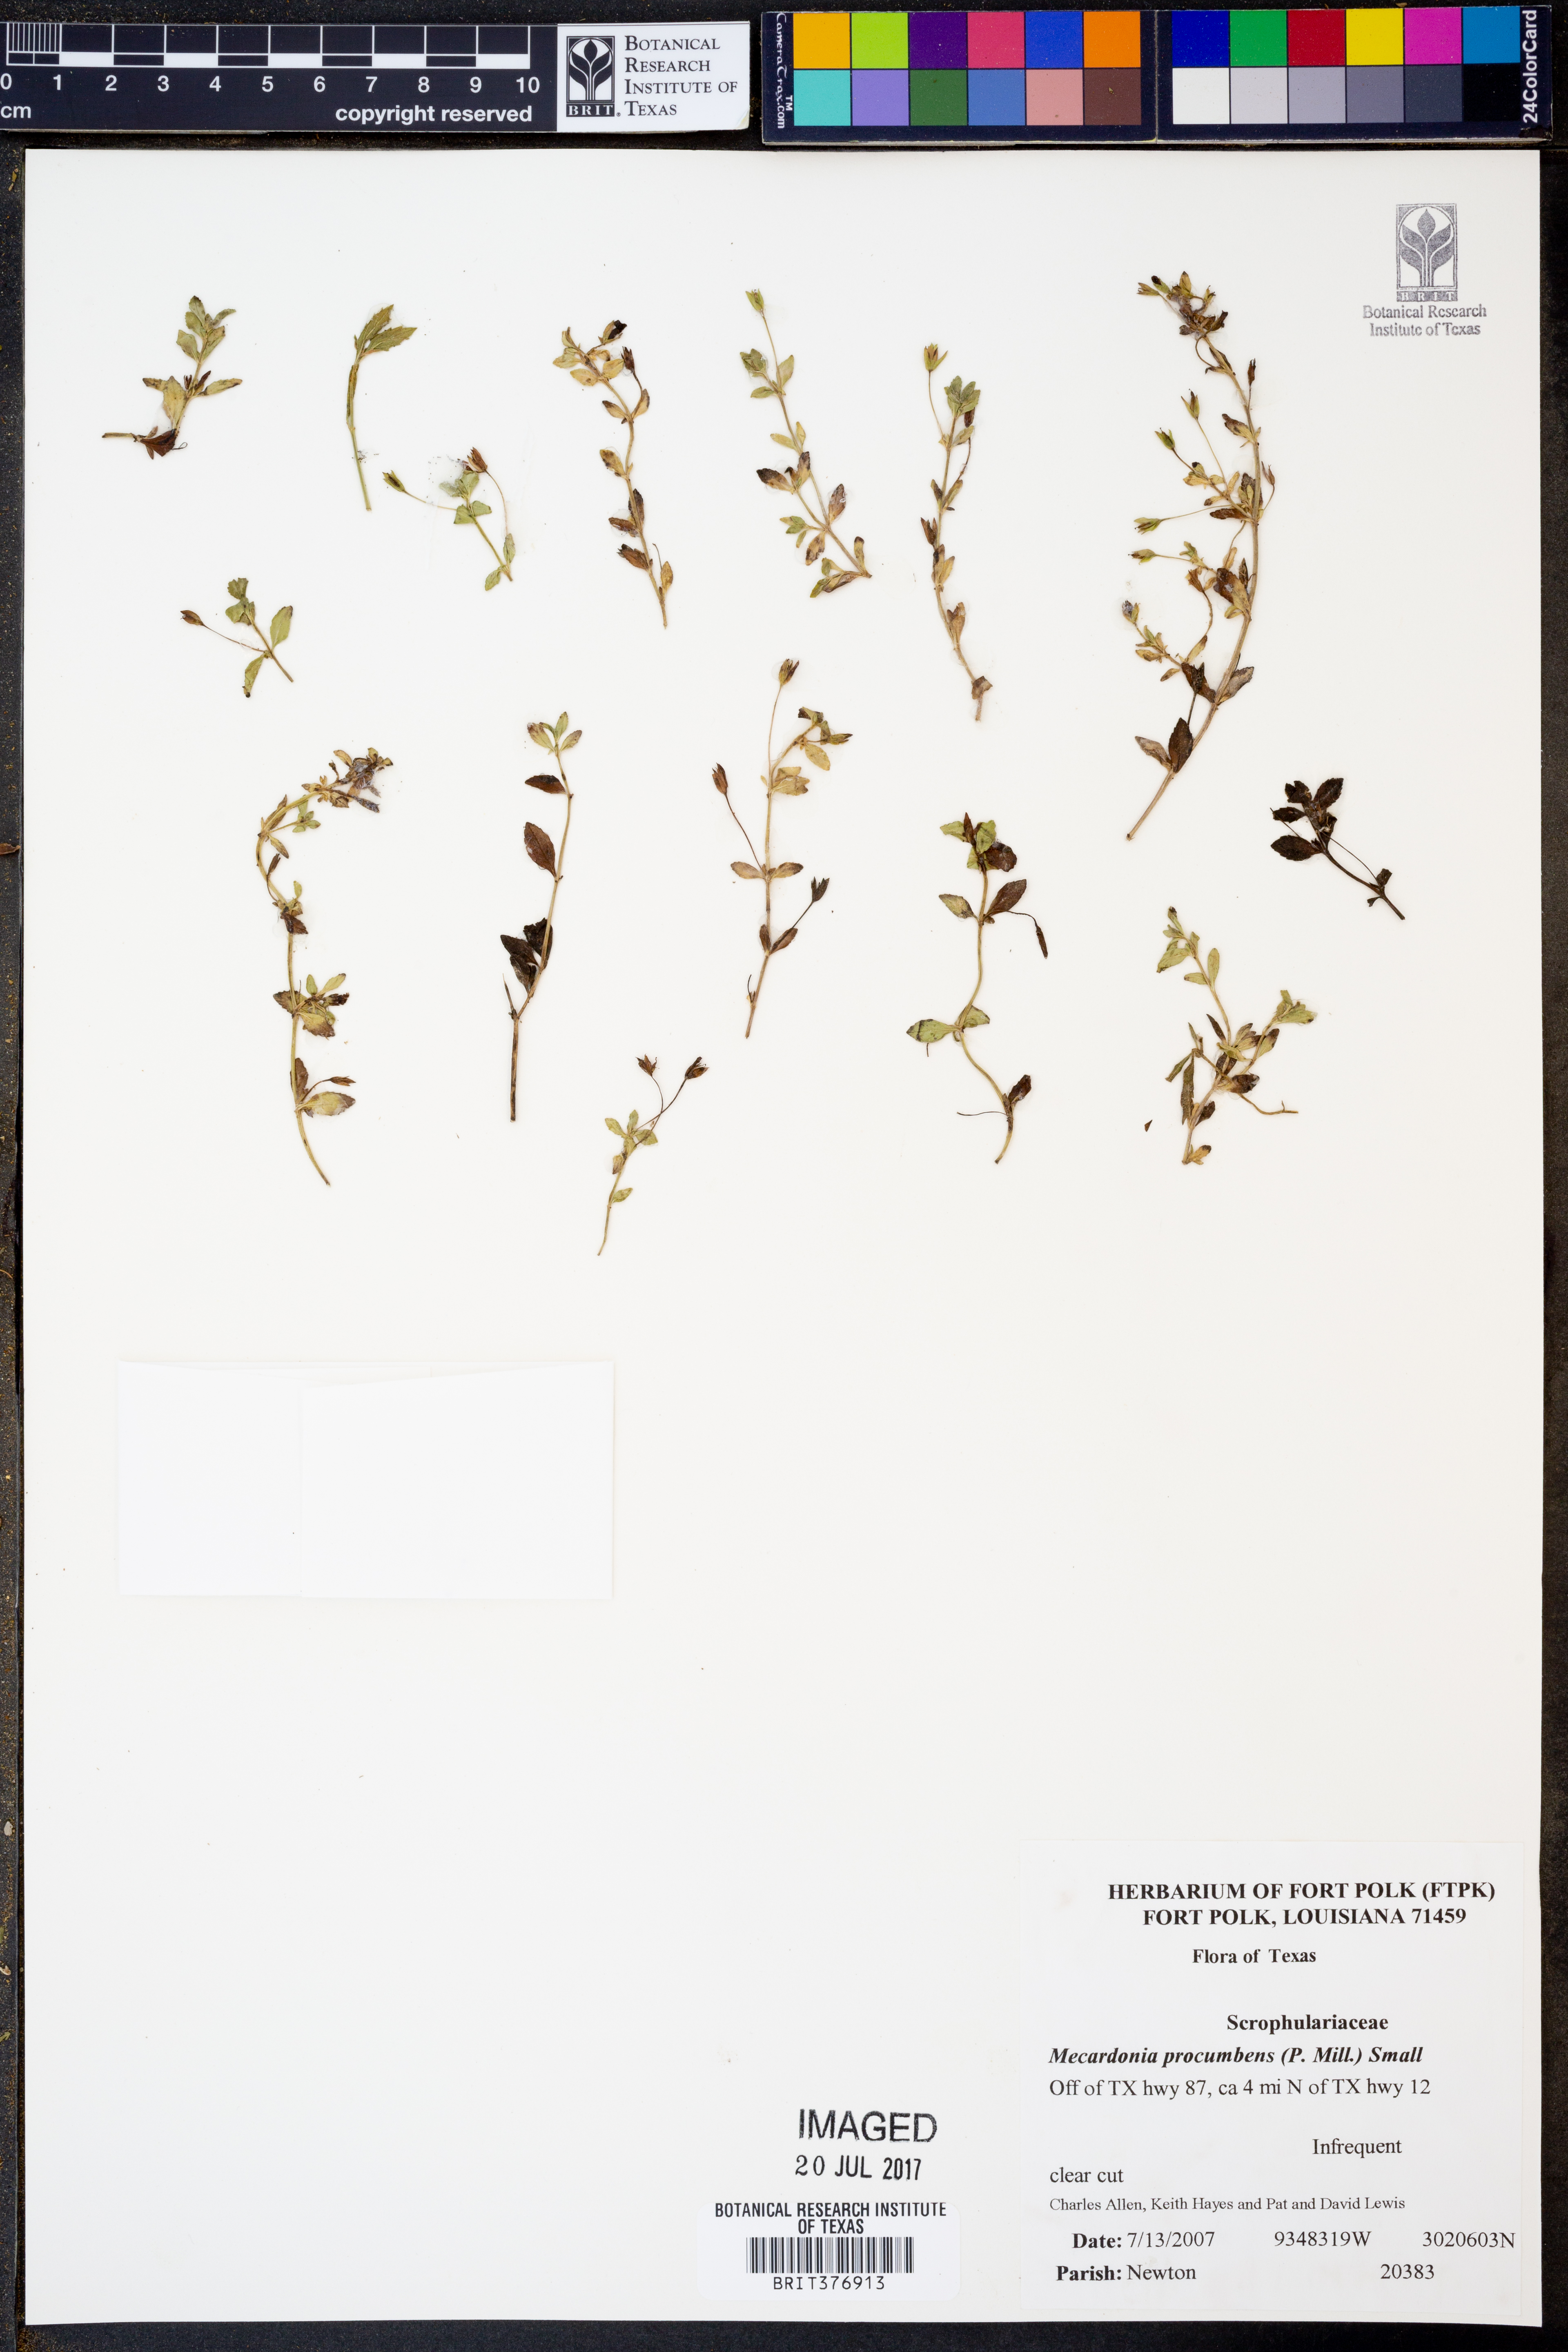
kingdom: Plantae
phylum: Tracheophyta
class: Magnoliopsida
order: Lamiales
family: Plantaginaceae
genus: Mecardonia
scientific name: Mecardonia procumbens
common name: Baby jump-up
